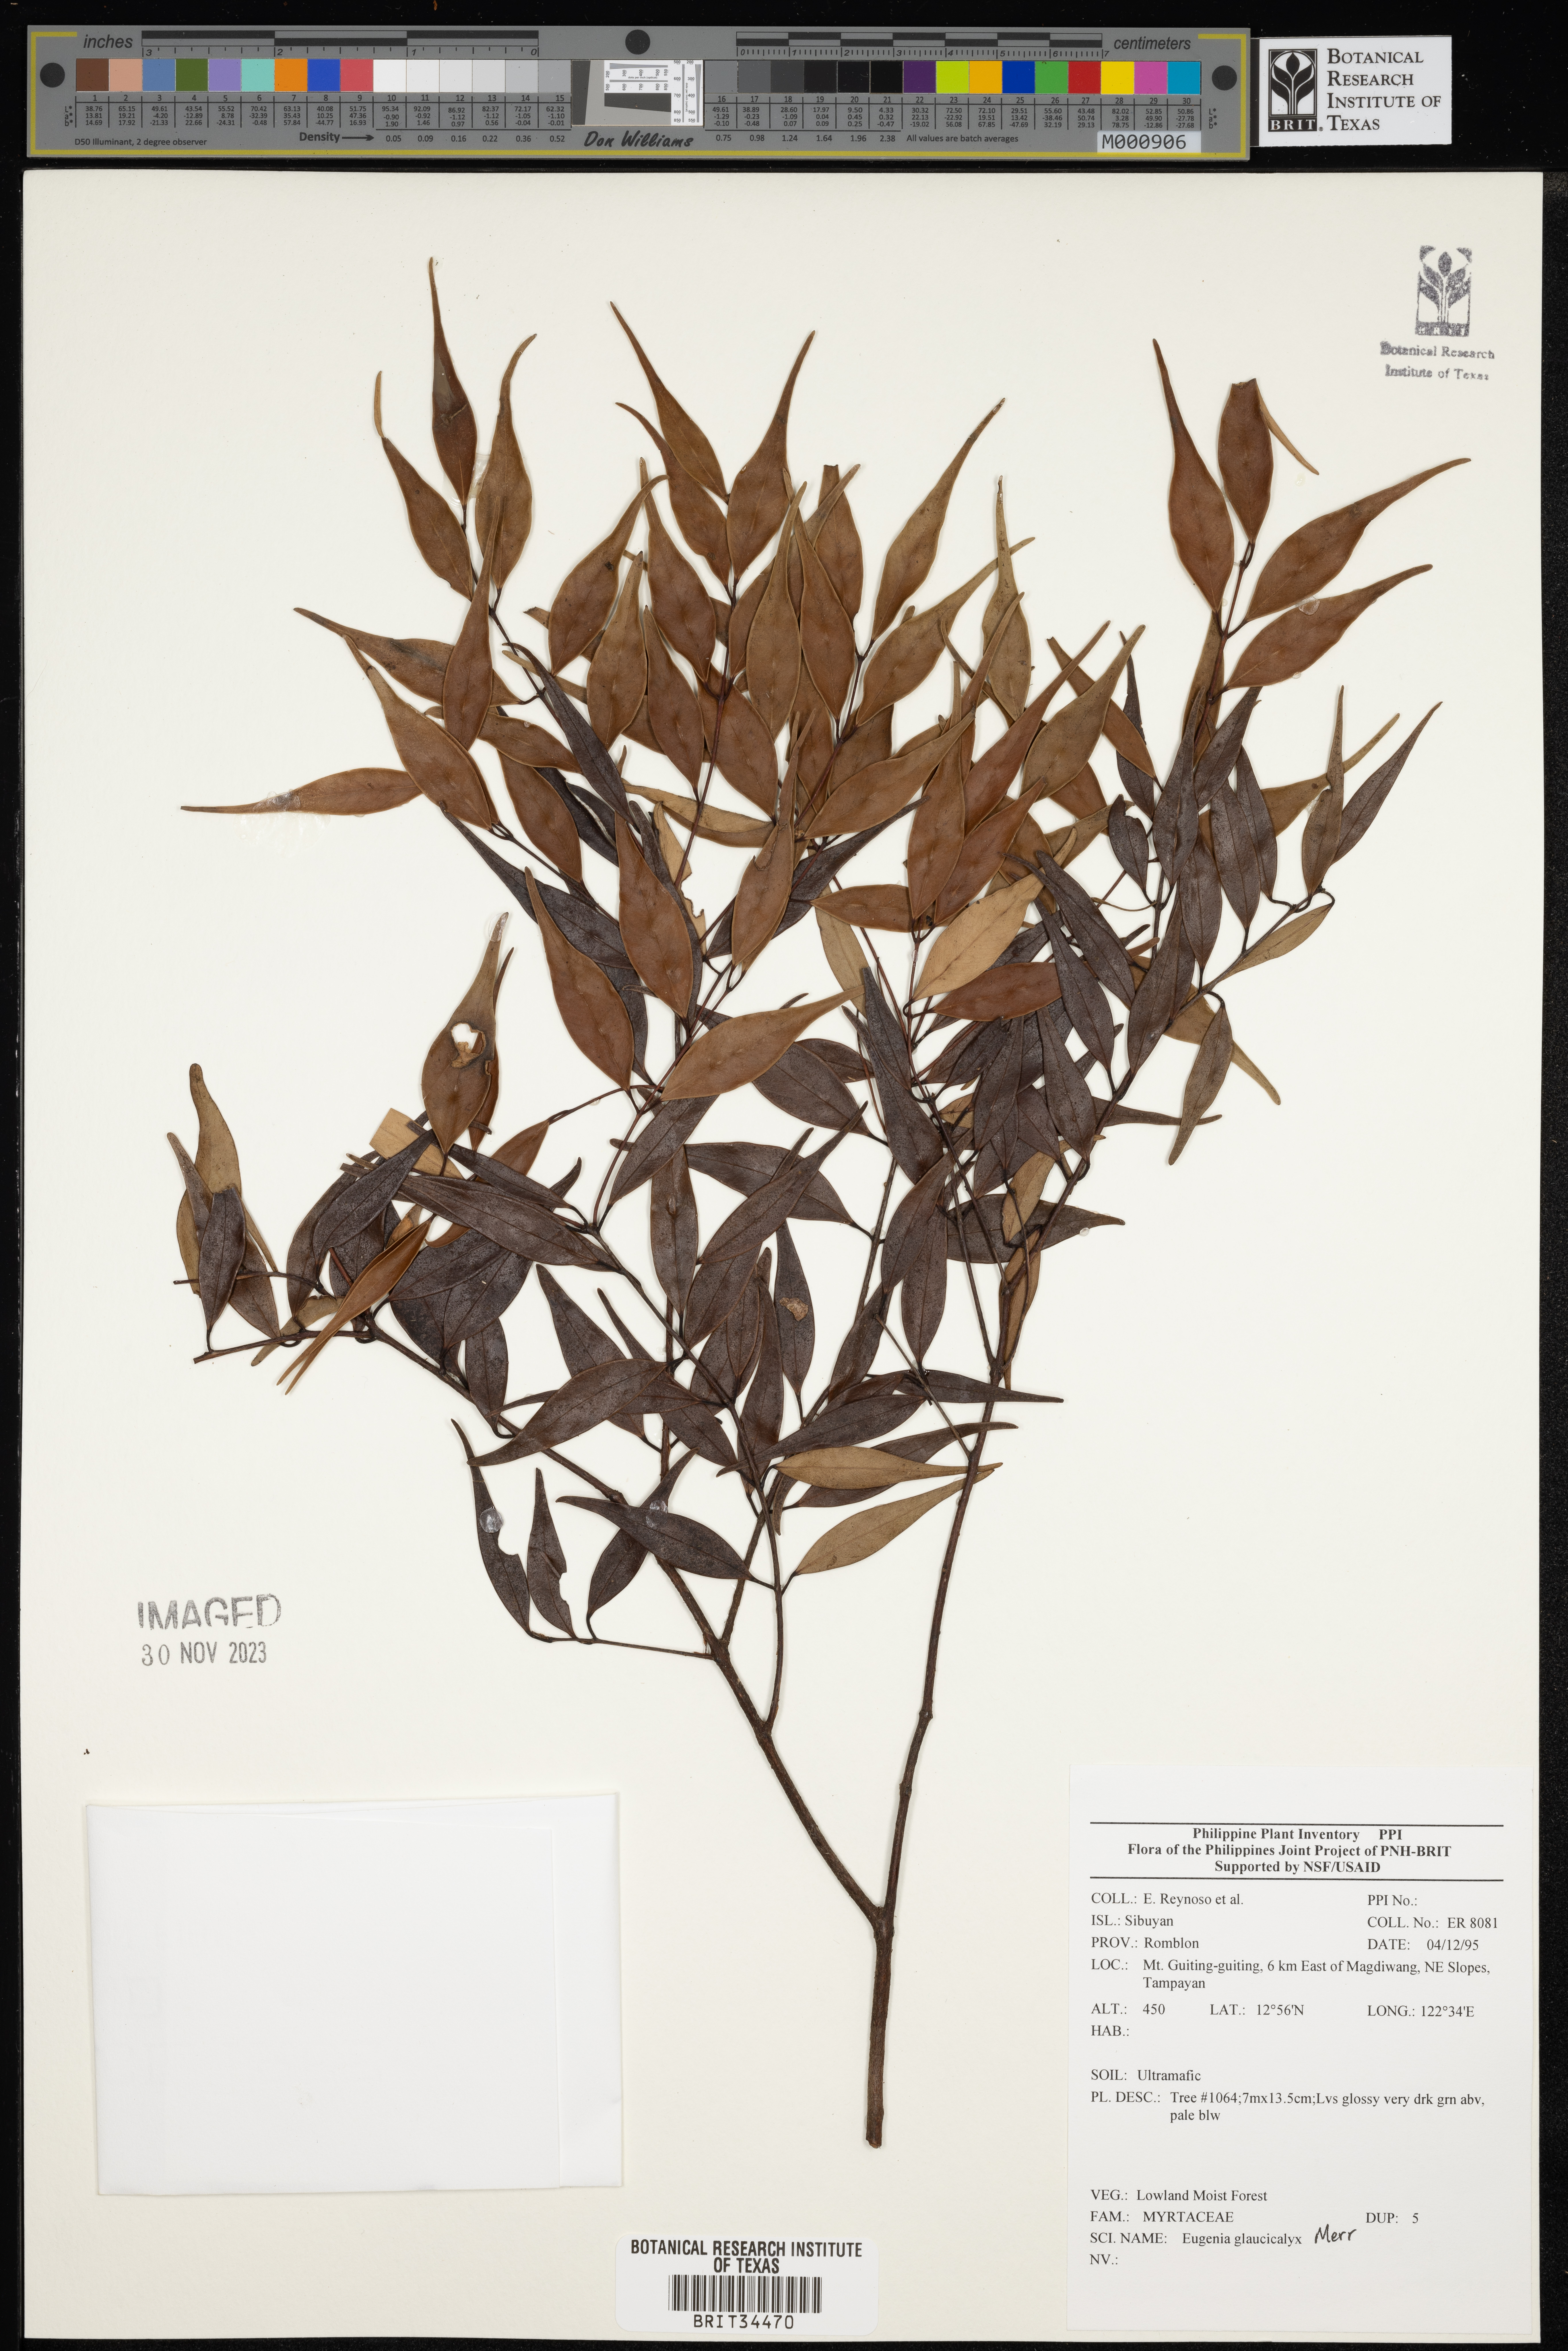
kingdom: Plantae
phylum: Tracheophyta
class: Magnoliopsida
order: Myrtales
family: Myrtaceae
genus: Eugenia
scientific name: Eugenia
